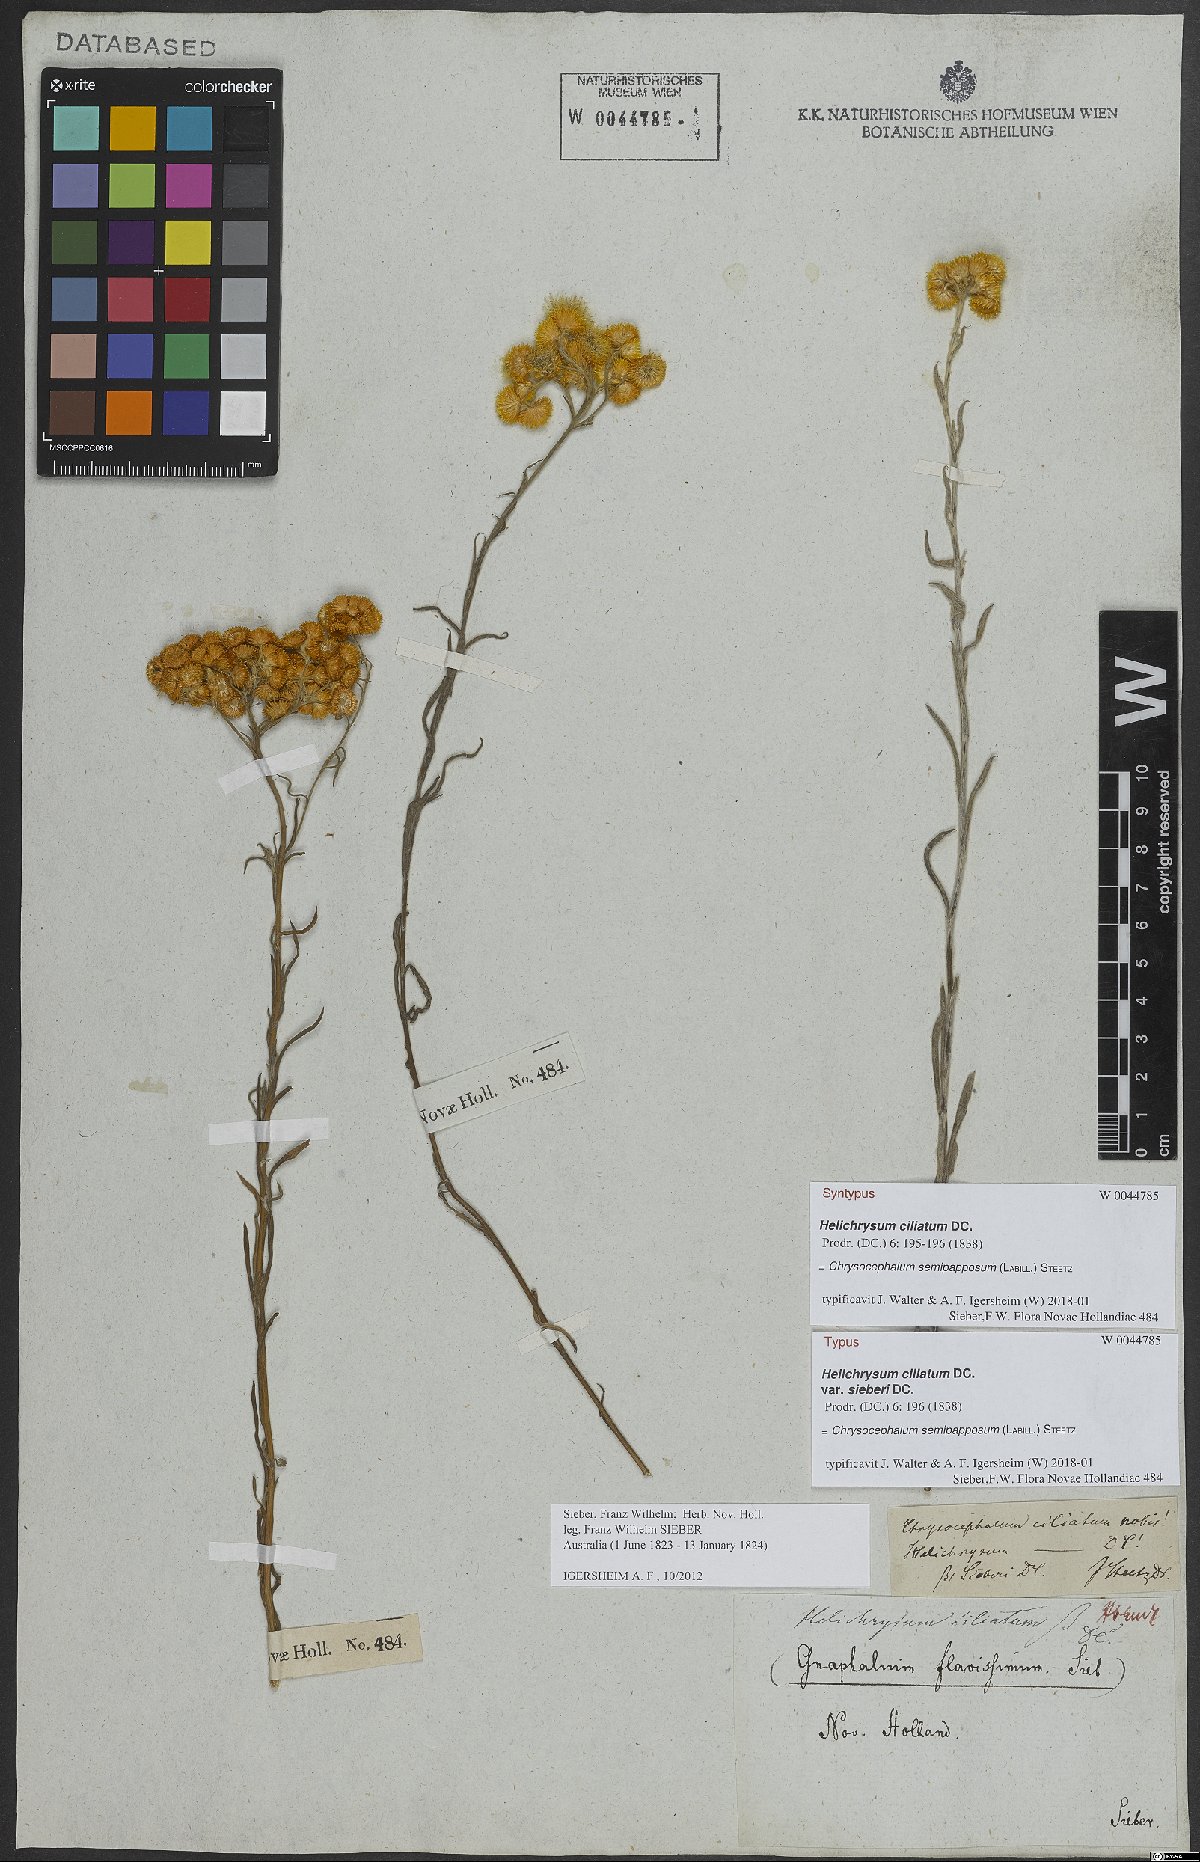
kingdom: Plantae
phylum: Tracheophyta
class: Magnoliopsida
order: Asterales
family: Asteraceae
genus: Chrysocephalum
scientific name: Chrysocephalum semipapposum
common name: Clustered everlasting
